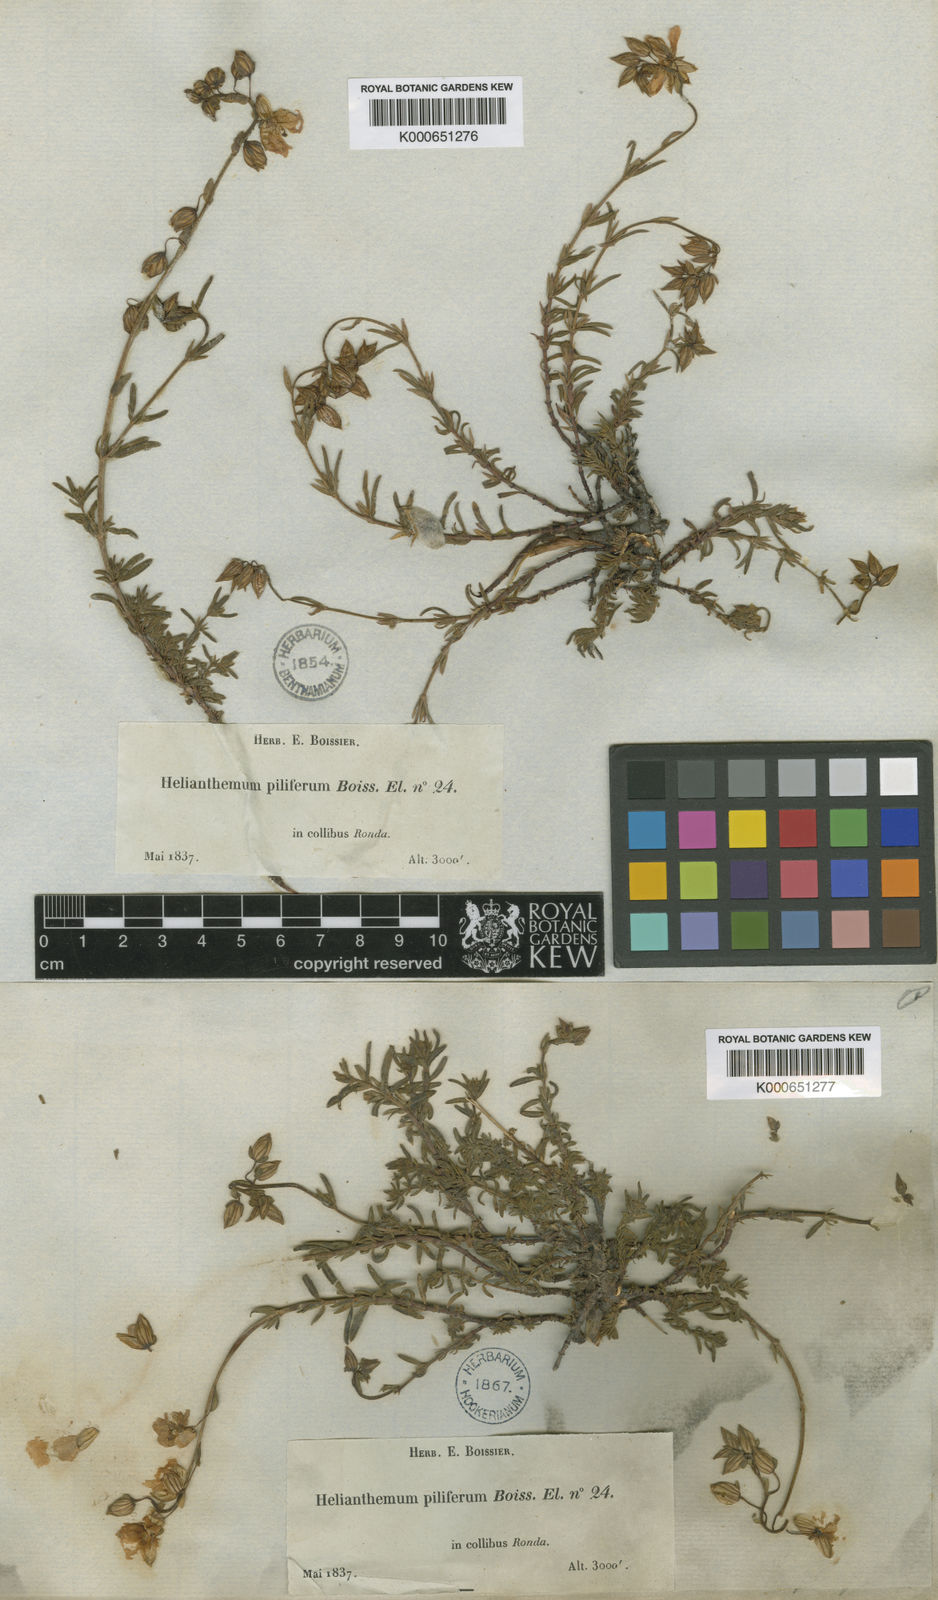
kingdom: Plantae
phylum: Tracheophyta
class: Magnoliopsida
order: Malvales
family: Cistaceae
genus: Helianthemum
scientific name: Helianthemum apenninum
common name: White rock-rose
